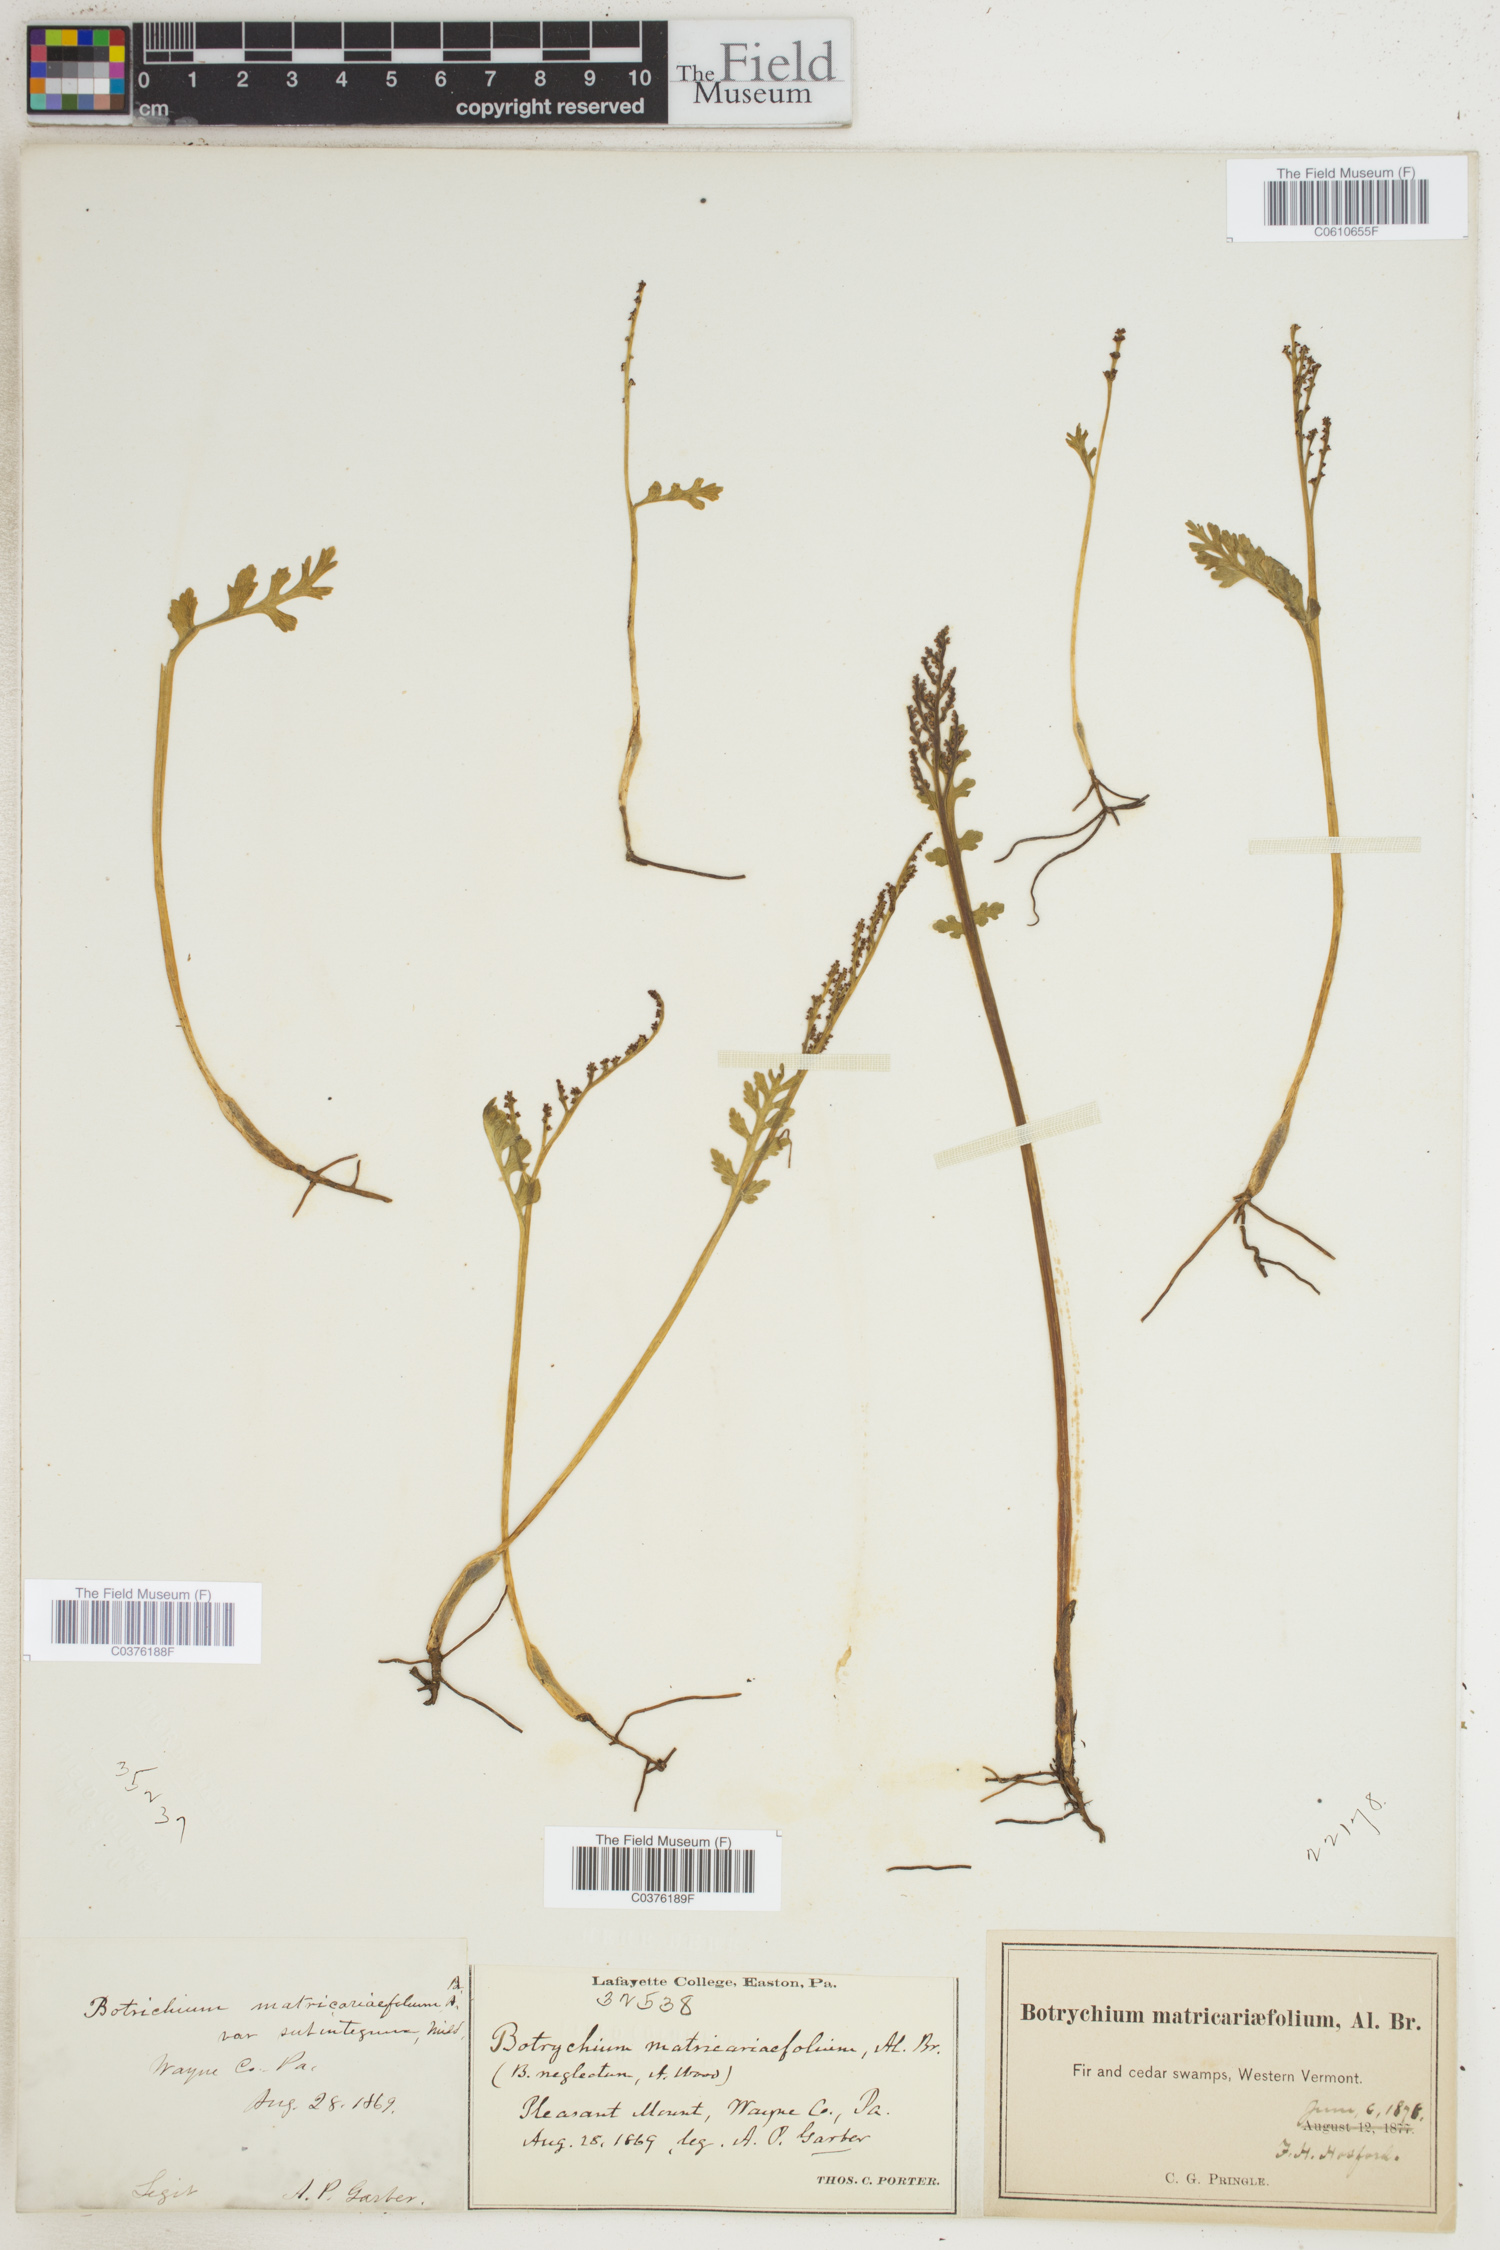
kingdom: Plantae
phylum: Tracheophyta
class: Polypodiopsida
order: Ophioglossales
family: Ophioglossaceae
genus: Botrychium
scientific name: Botrychium matricariifolium
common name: Branched moonwort
